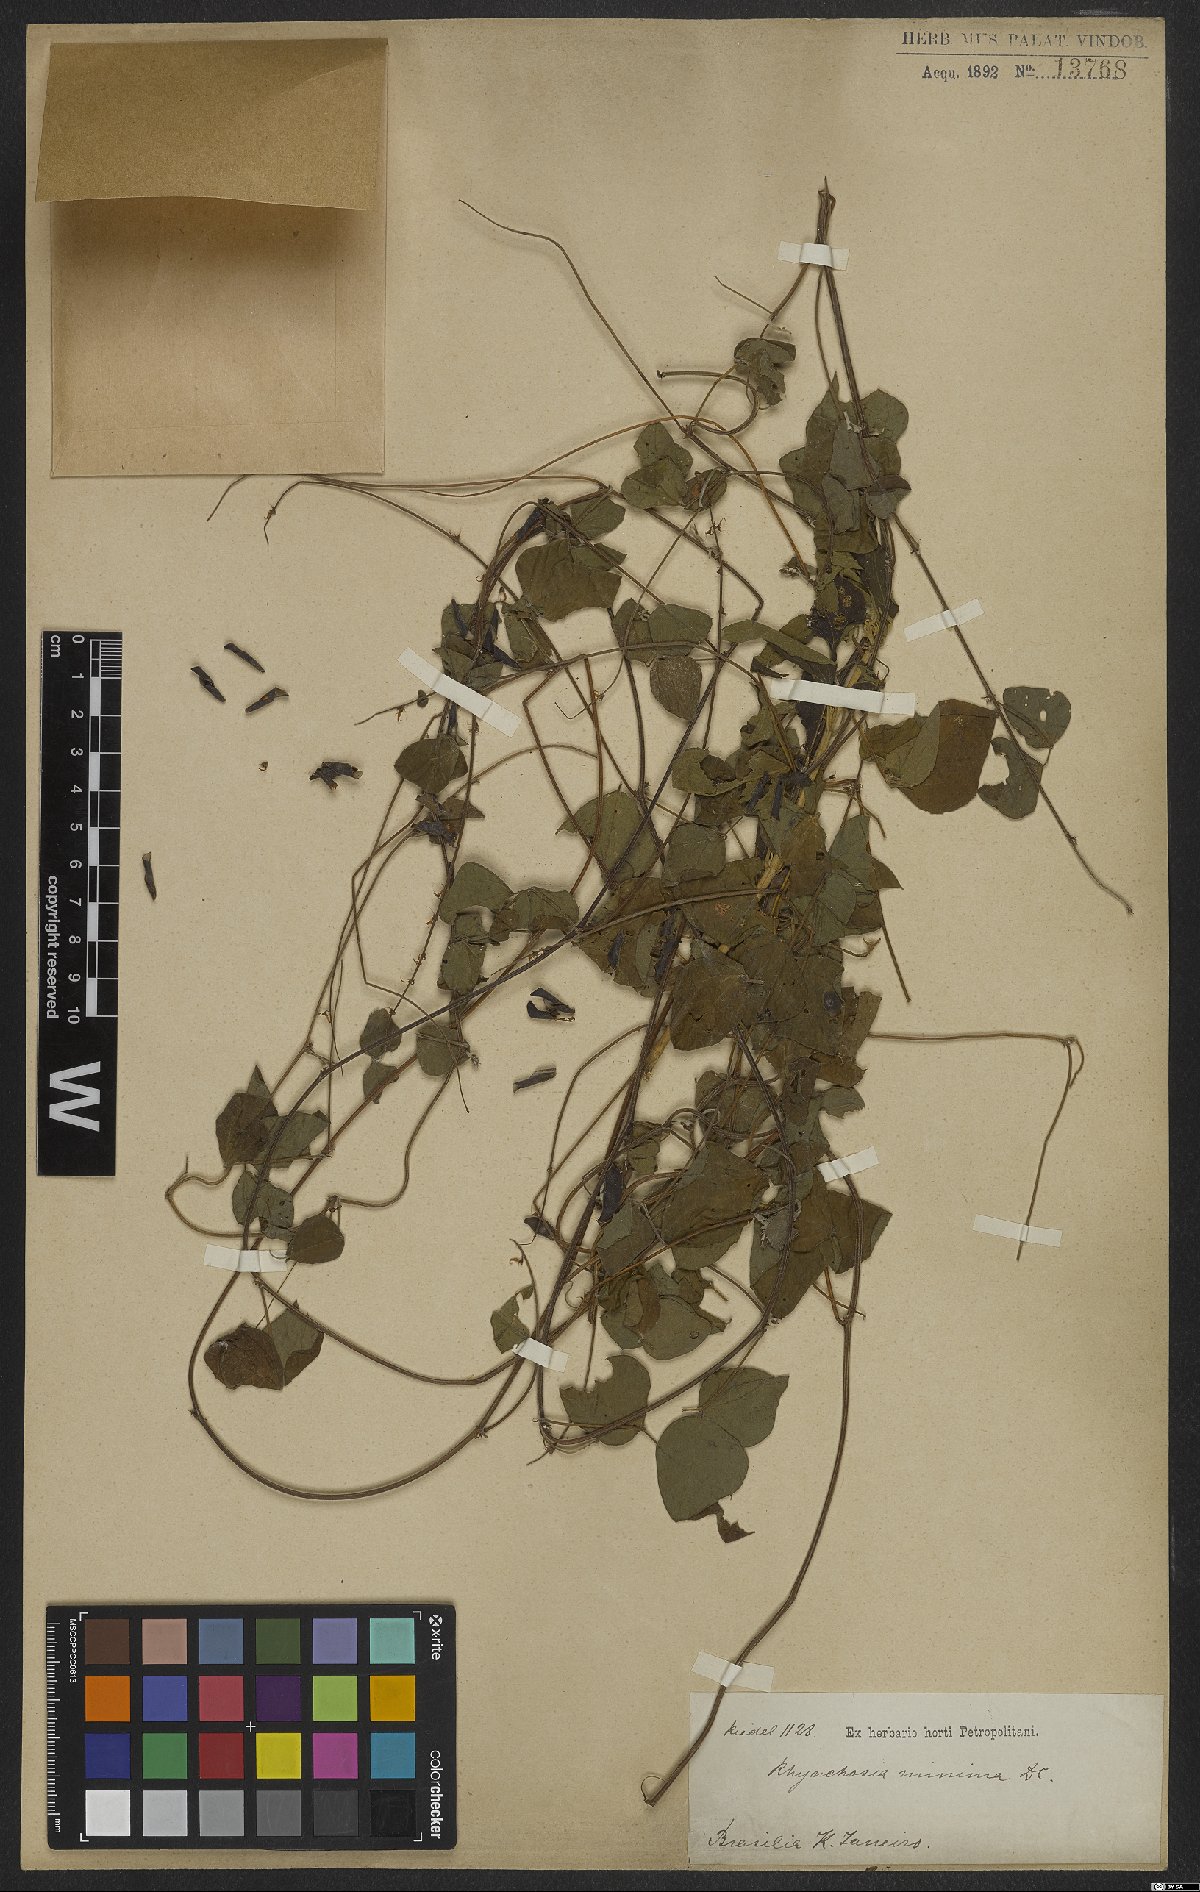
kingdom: Plantae
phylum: Tracheophyta
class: Magnoliopsida
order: Fabales
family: Fabaceae
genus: Rhynchosia
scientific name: Rhynchosia minima
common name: Least snoutbean
